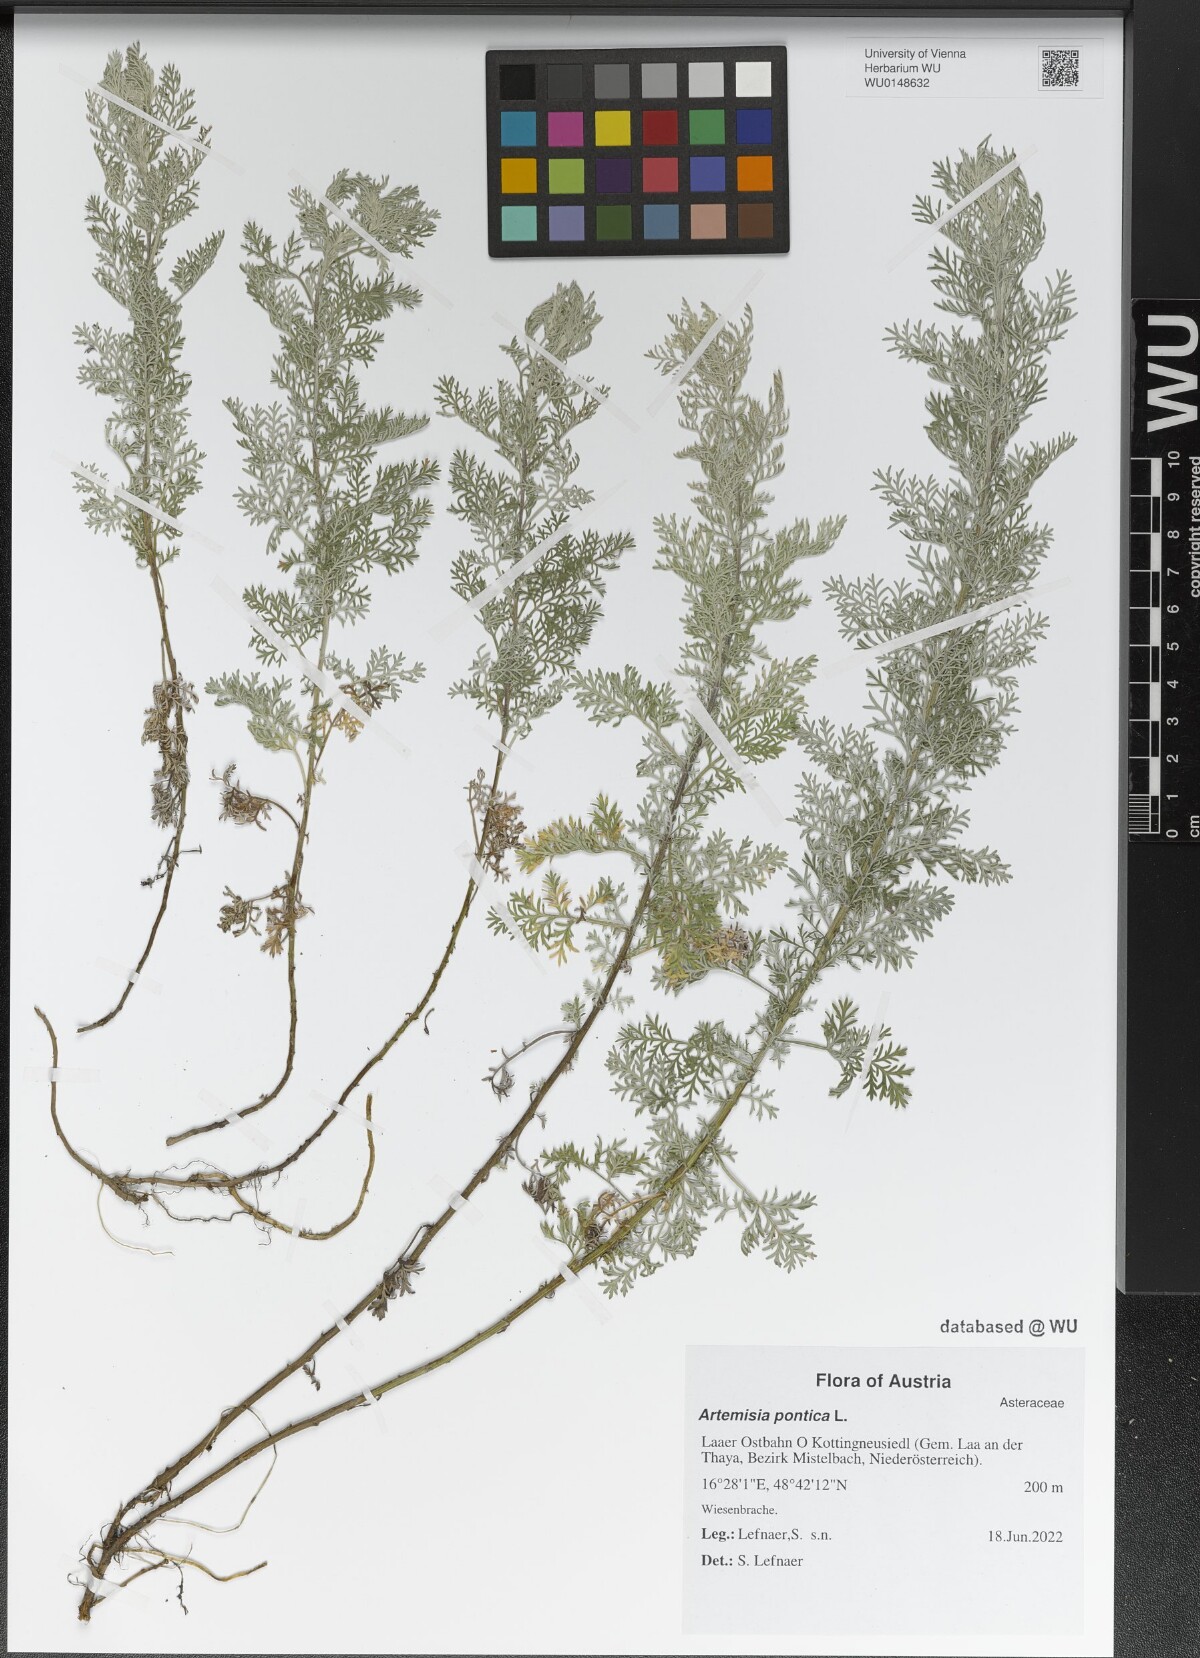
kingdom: Plantae
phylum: Tracheophyta
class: Magnoliopsida
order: Asterales
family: Asteraceae
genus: Artemisia
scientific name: Artemisia pontica
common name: Roman wormwood
